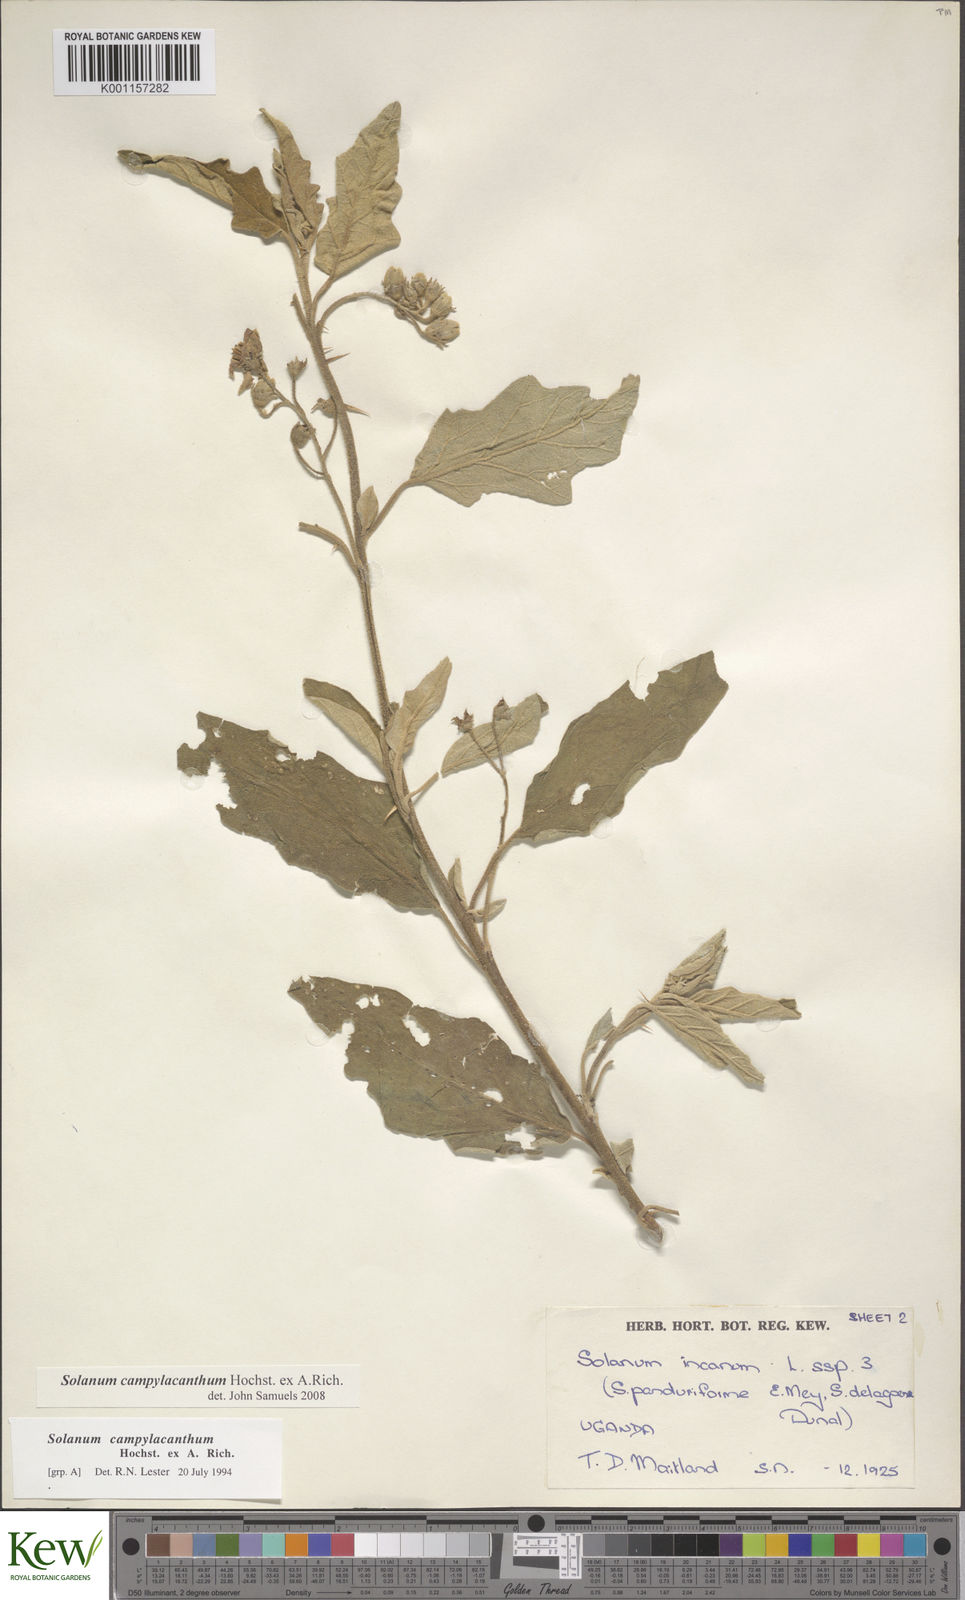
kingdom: Plantae
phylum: Tracheophyta
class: Magnoliopsida
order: Solanales
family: Solanaceae
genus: Solanum
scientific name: Solanum campylacanthum
